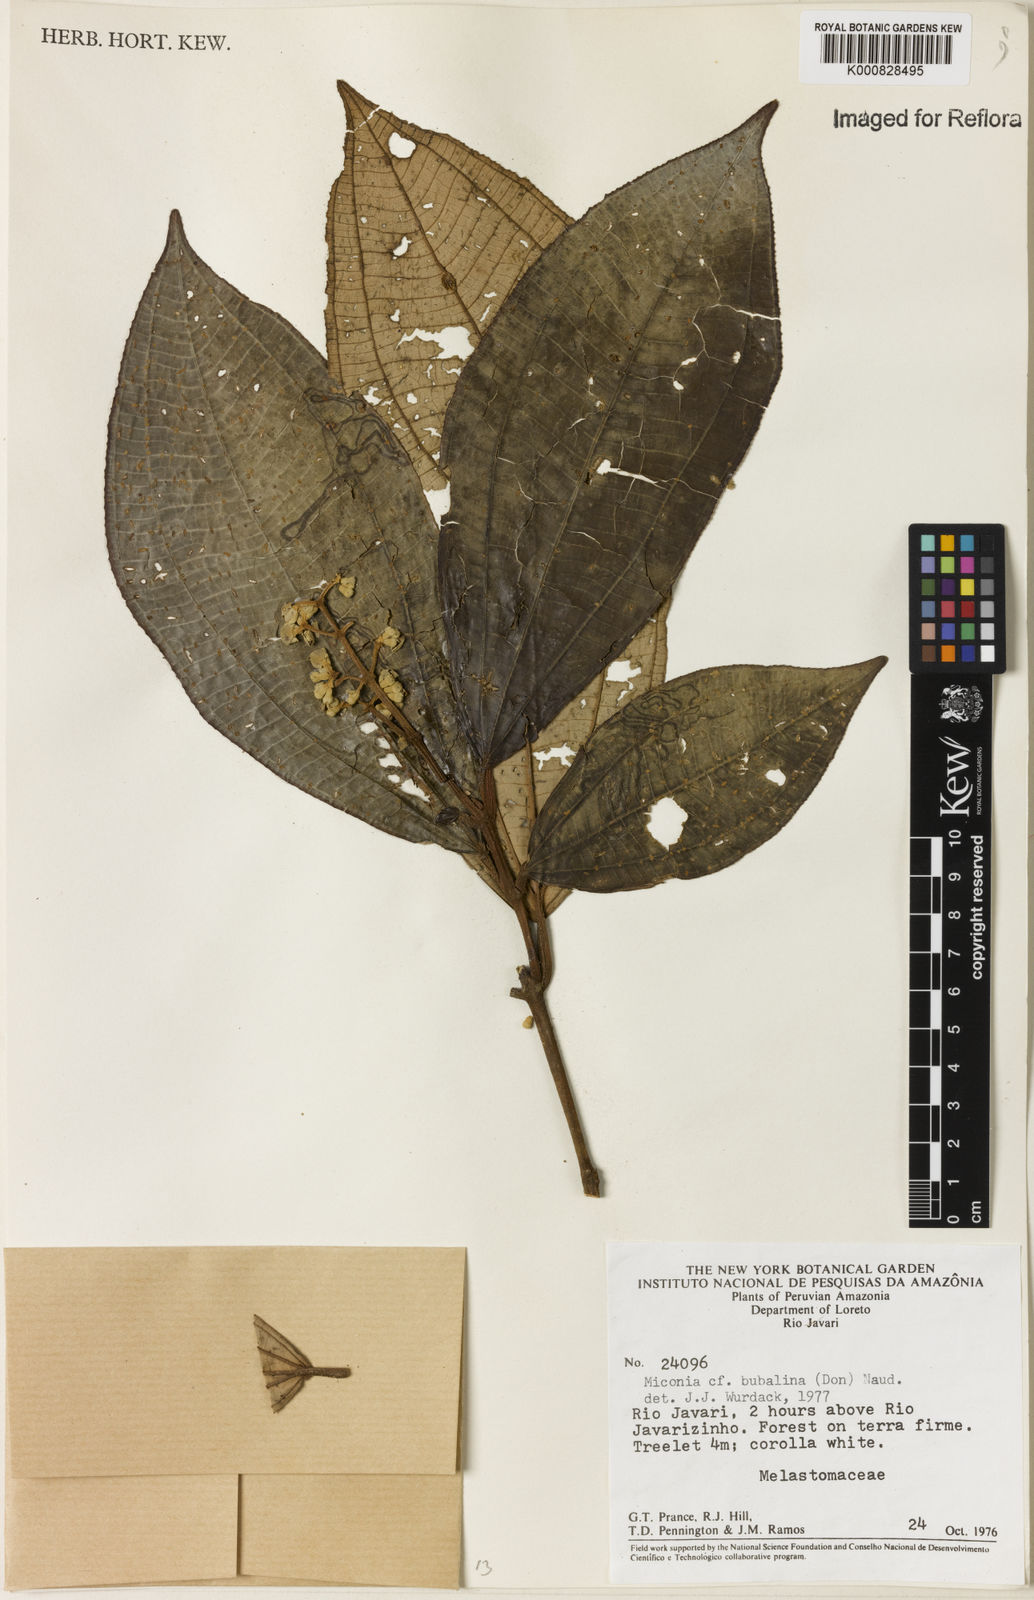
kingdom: Plantae
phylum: Tracheophyta
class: Magnoliopsida
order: Myrtales
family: Melastomataceae
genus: Miconia
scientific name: Miconia bubalina
